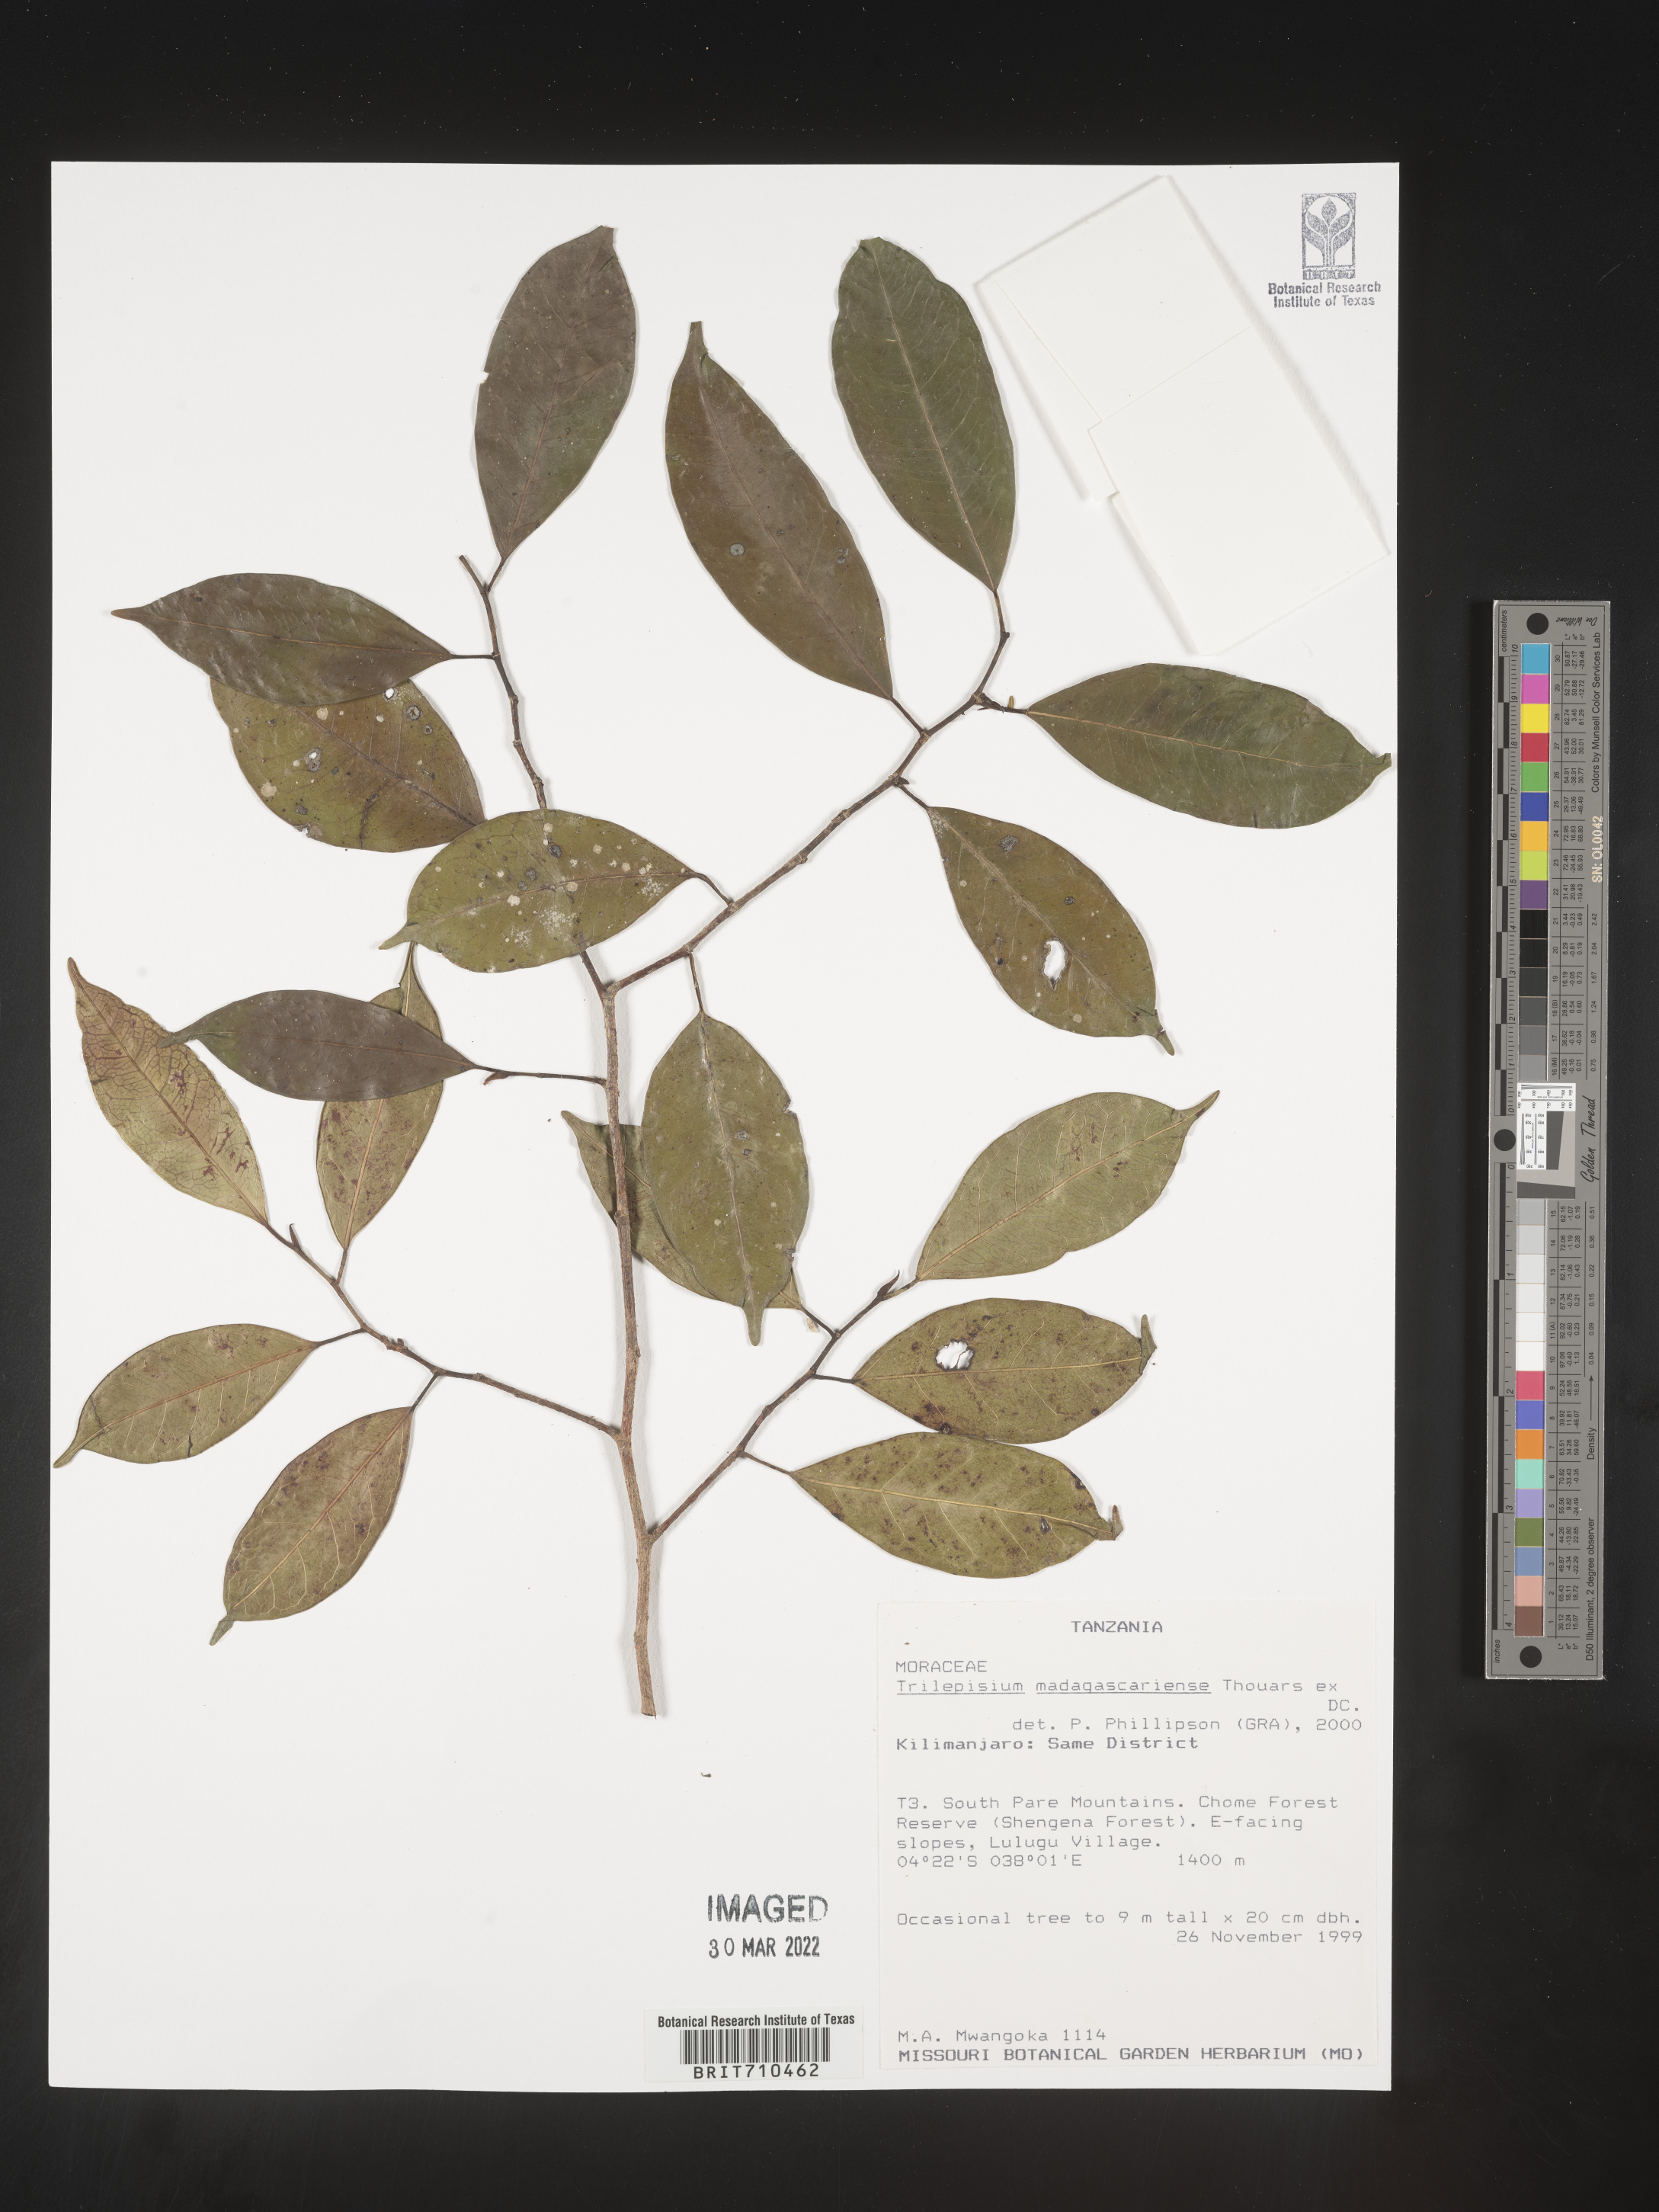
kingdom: Plantae
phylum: Tracheophyta
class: Magnoliopsida
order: Rosales
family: Moraceae
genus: Trilepisium
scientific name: Trilepisium
